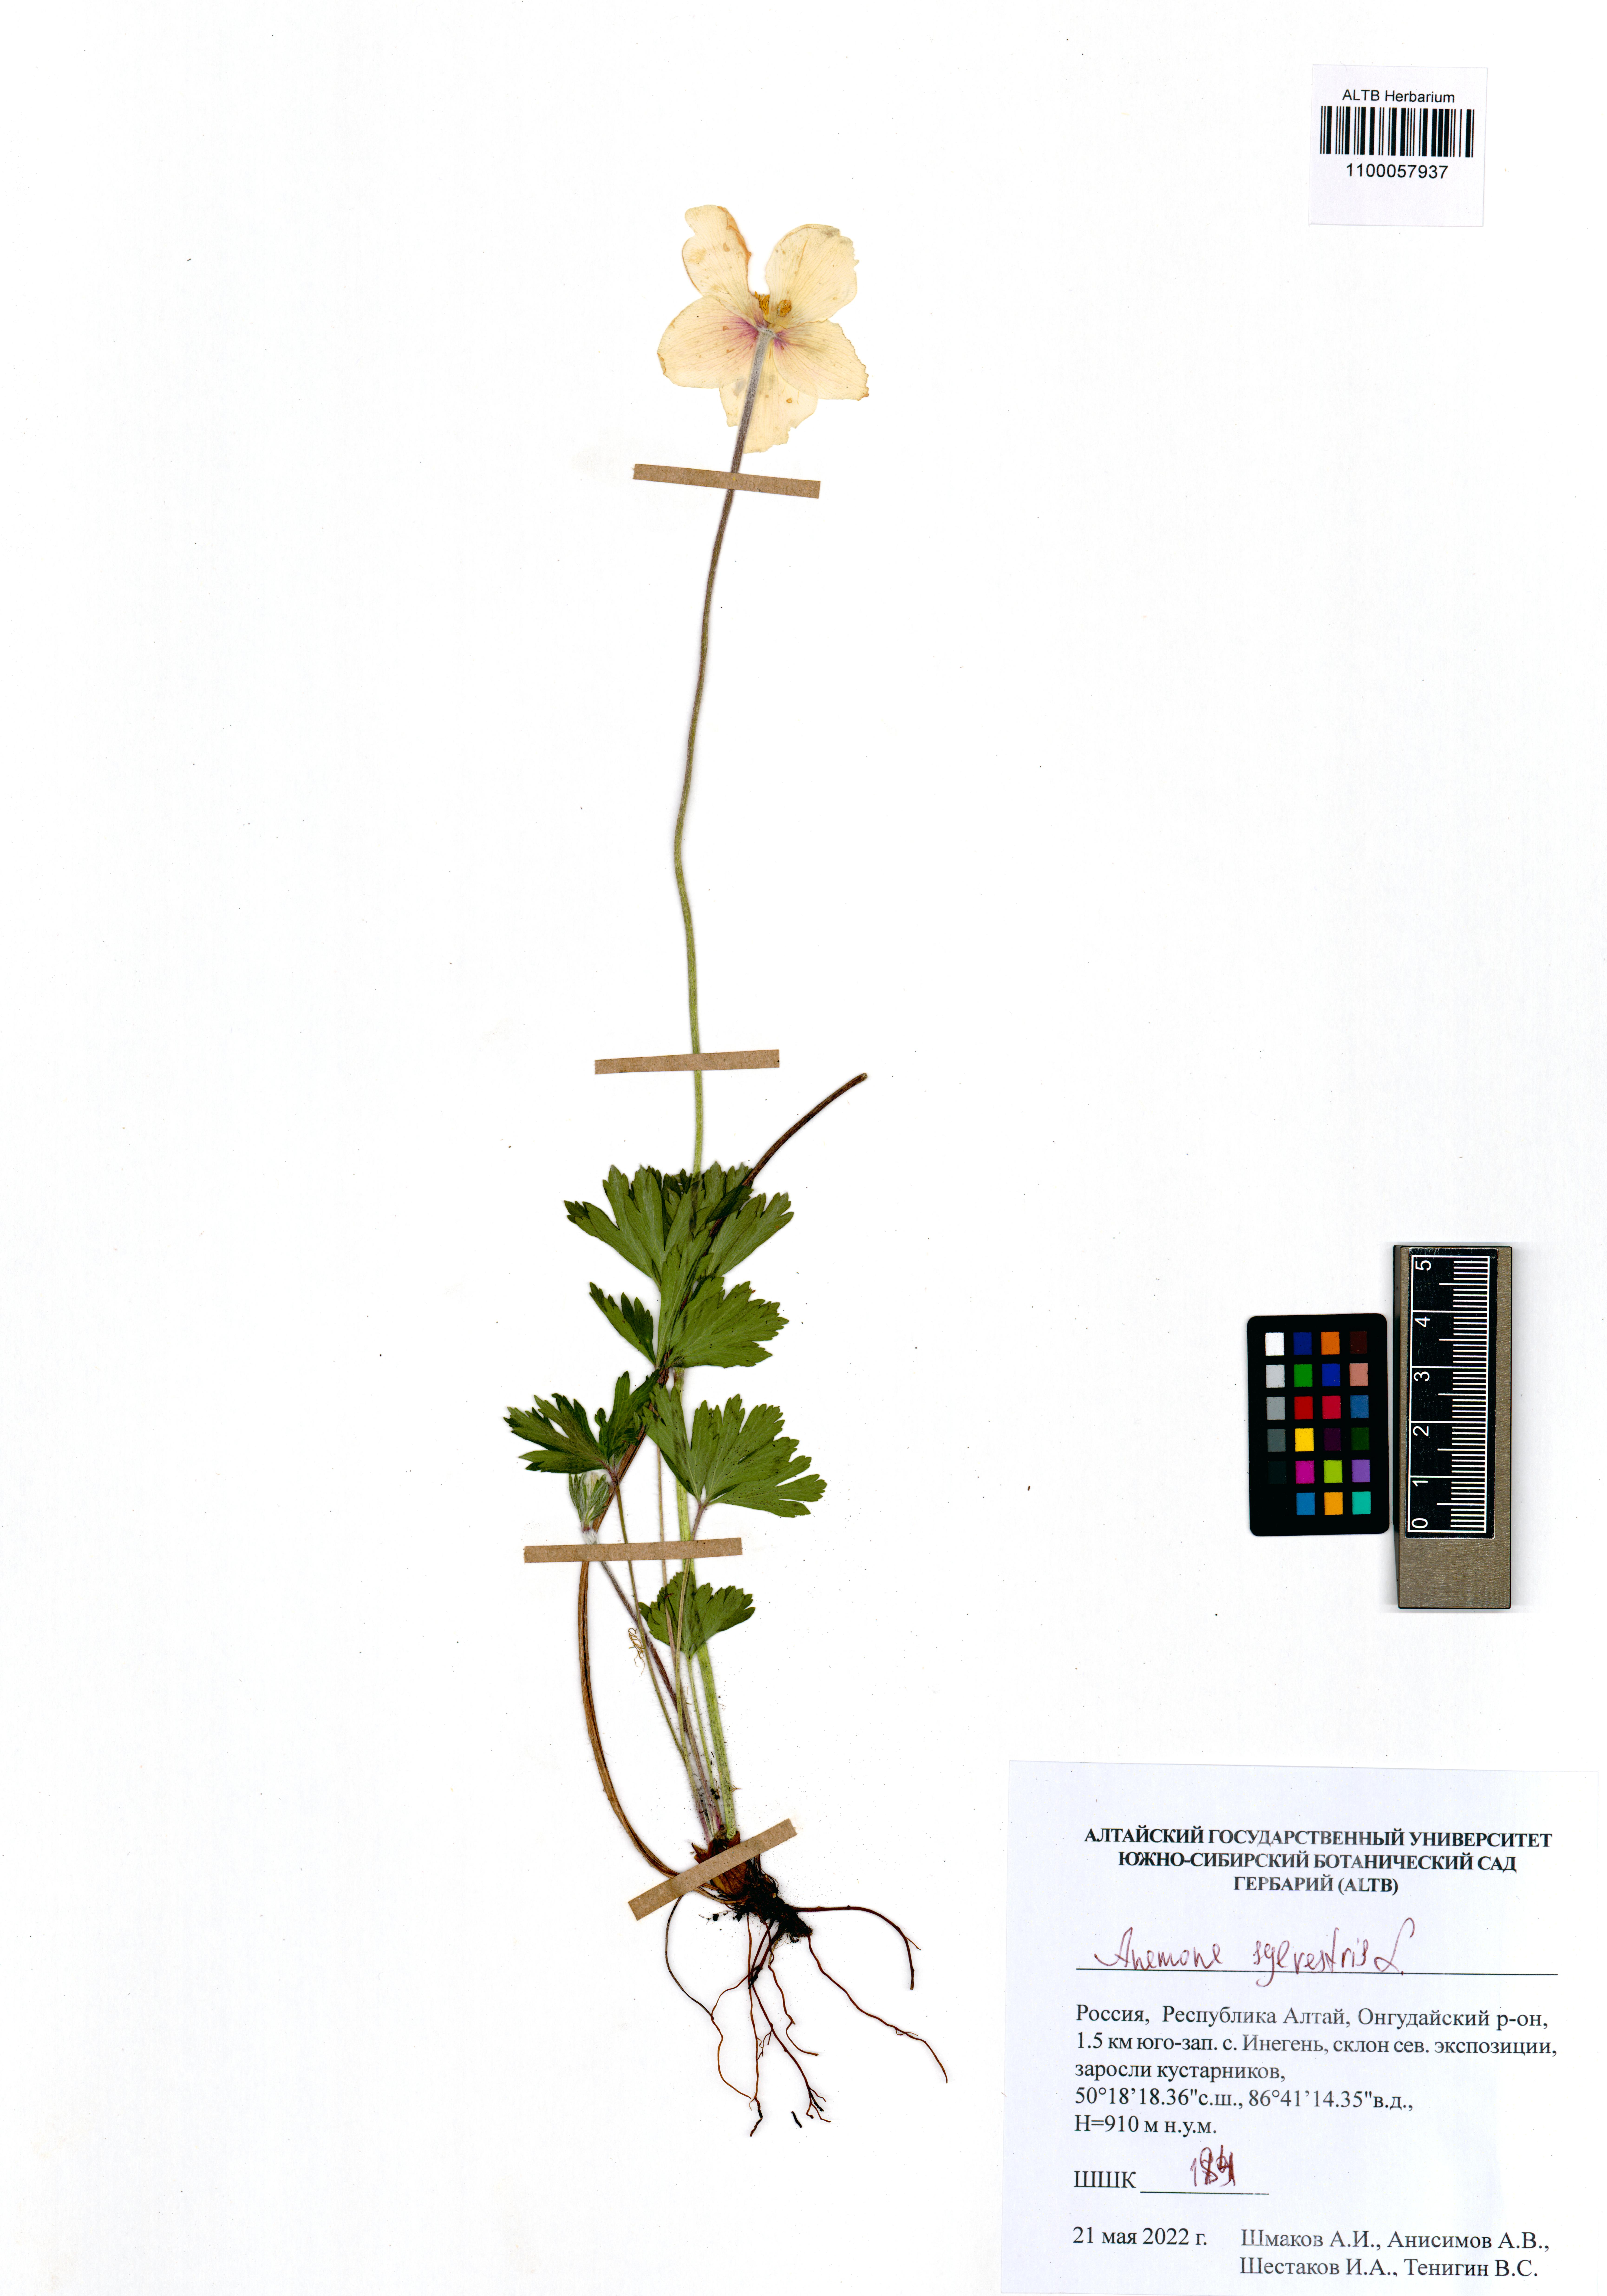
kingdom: Plantae
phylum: Tracheophyta
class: Magnoliopsida
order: Ranunculales
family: Ranunculaceae
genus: Anemone
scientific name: Anemone sylvestris
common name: Snowdrop anemone
